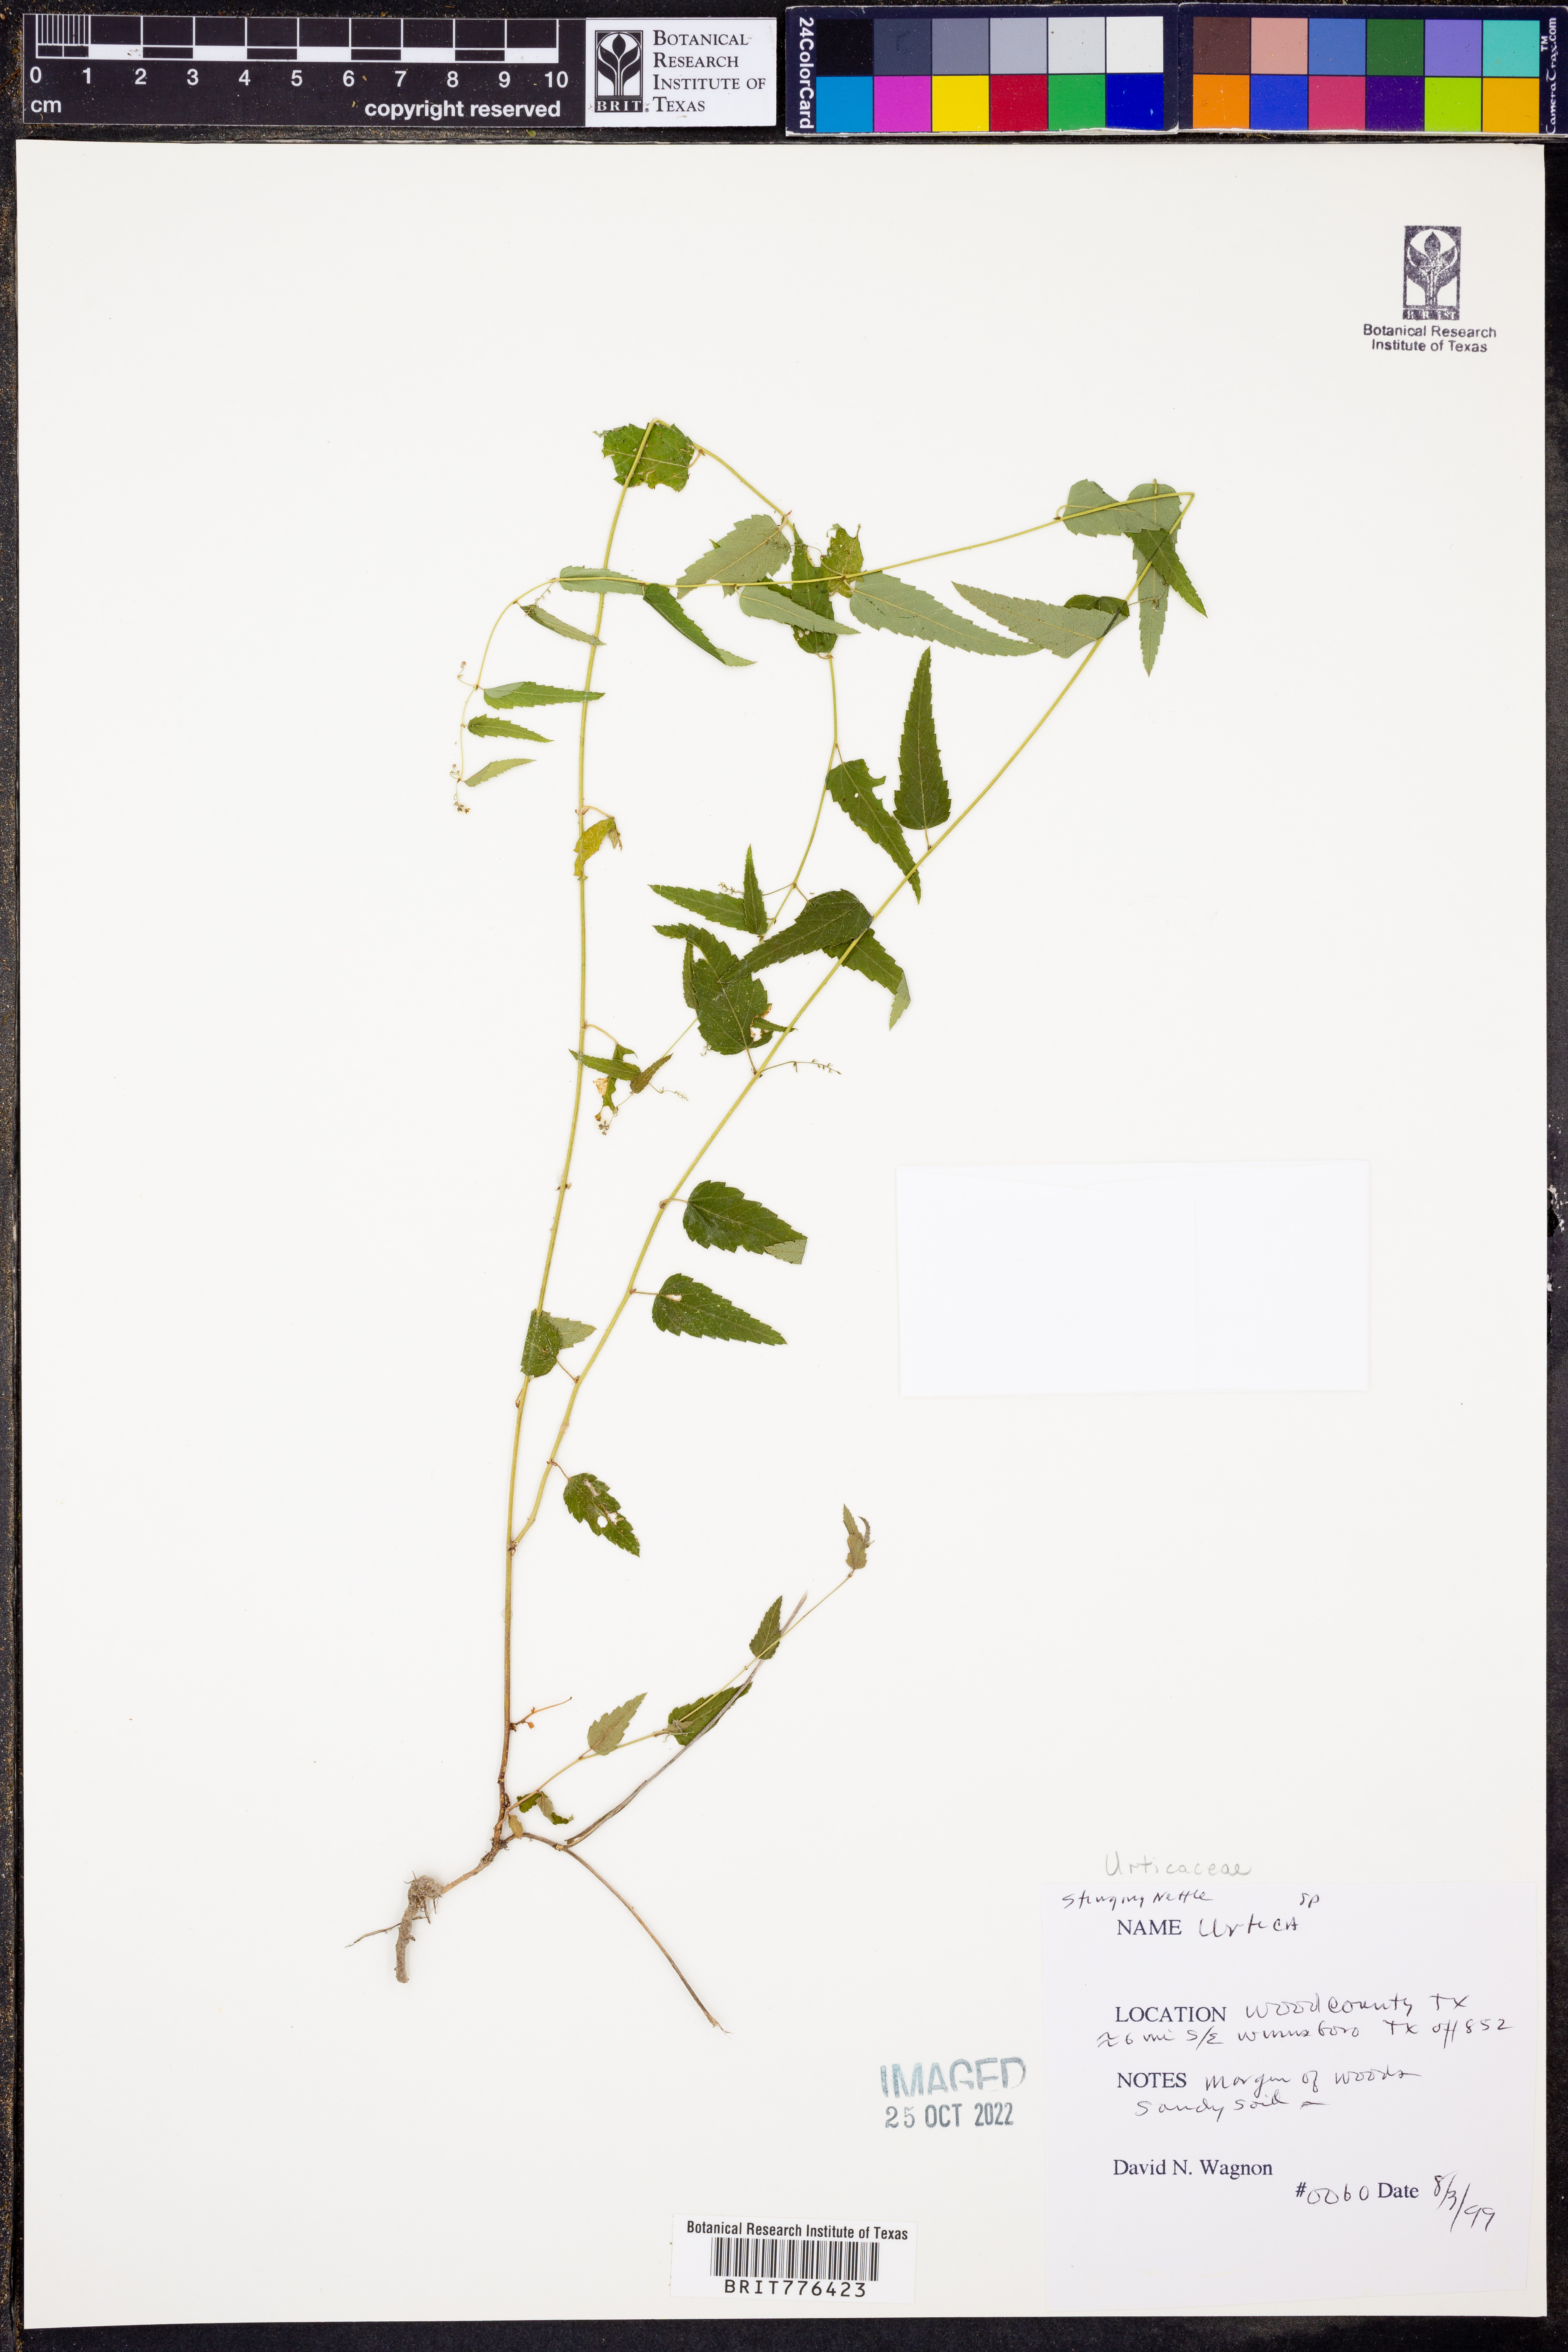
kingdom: Plantae
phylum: Tracheophyta
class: Magnoliopsida
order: Rosales
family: Urticaceae
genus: Urtica
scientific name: Urtica
